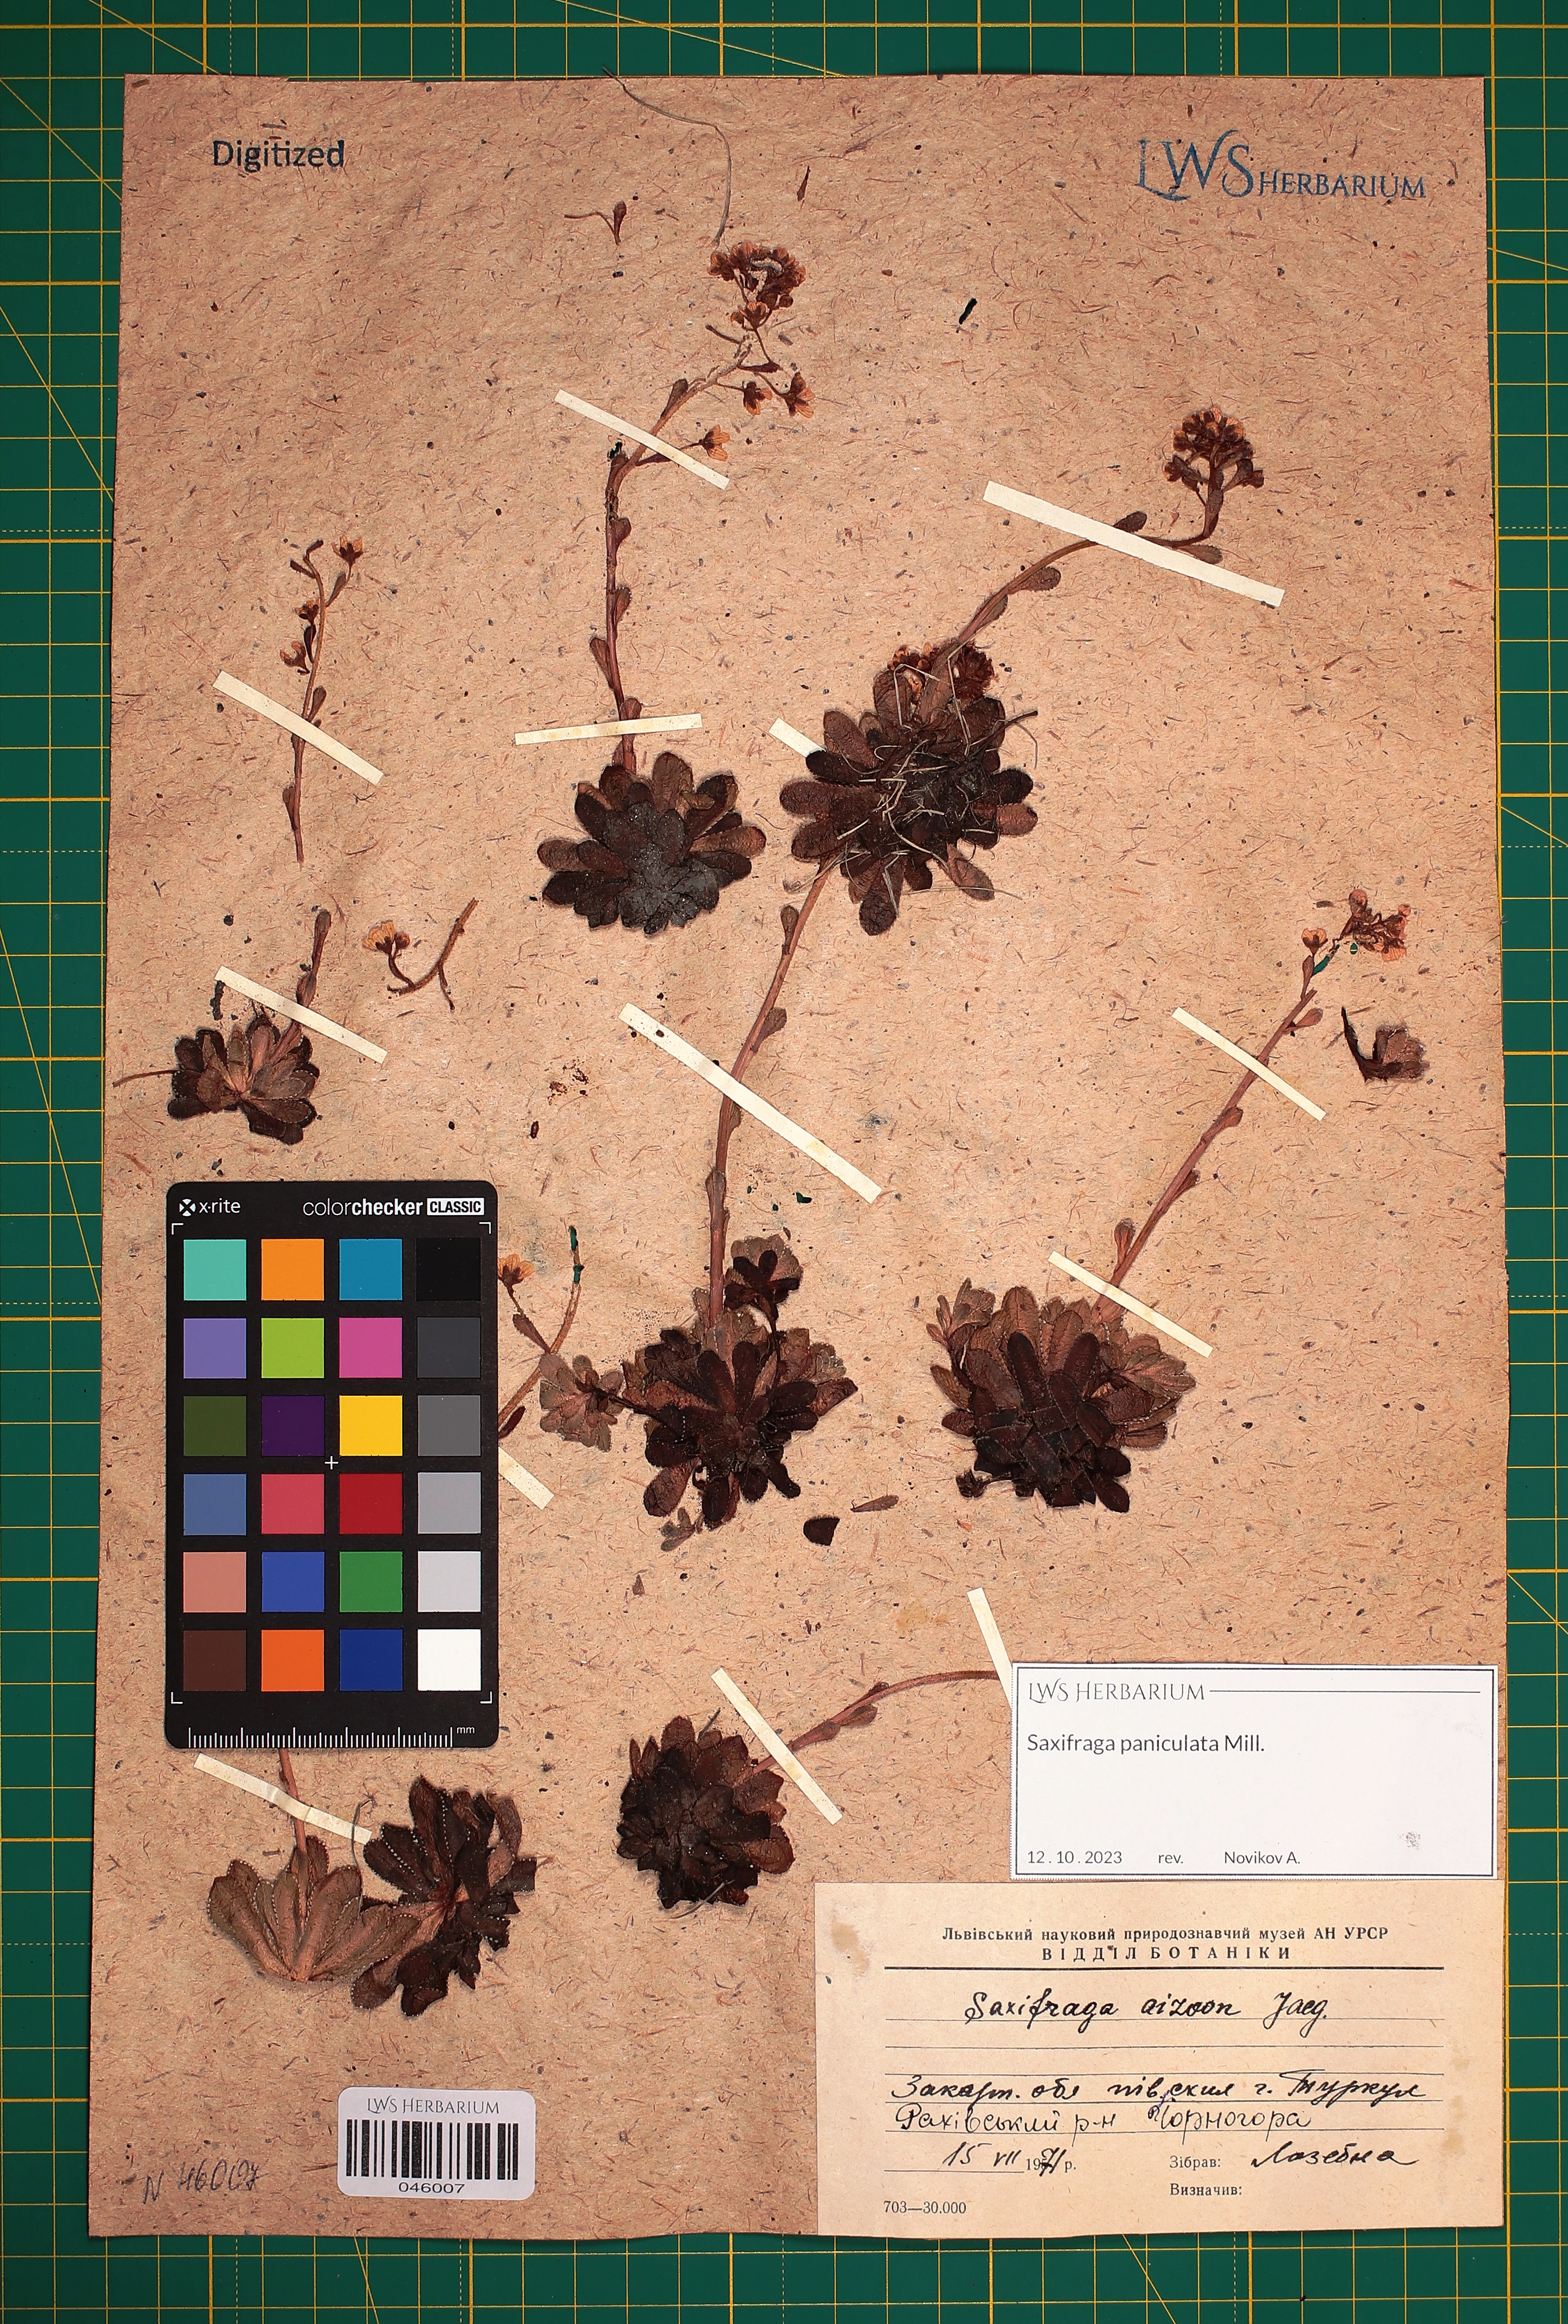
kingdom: Plantae
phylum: Tracheophyta
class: Magnoliopsida
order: Saxifragales
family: Saxifragaceae
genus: Saxifraga
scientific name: Saxifraga paniculata
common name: Livelong saxifrage
